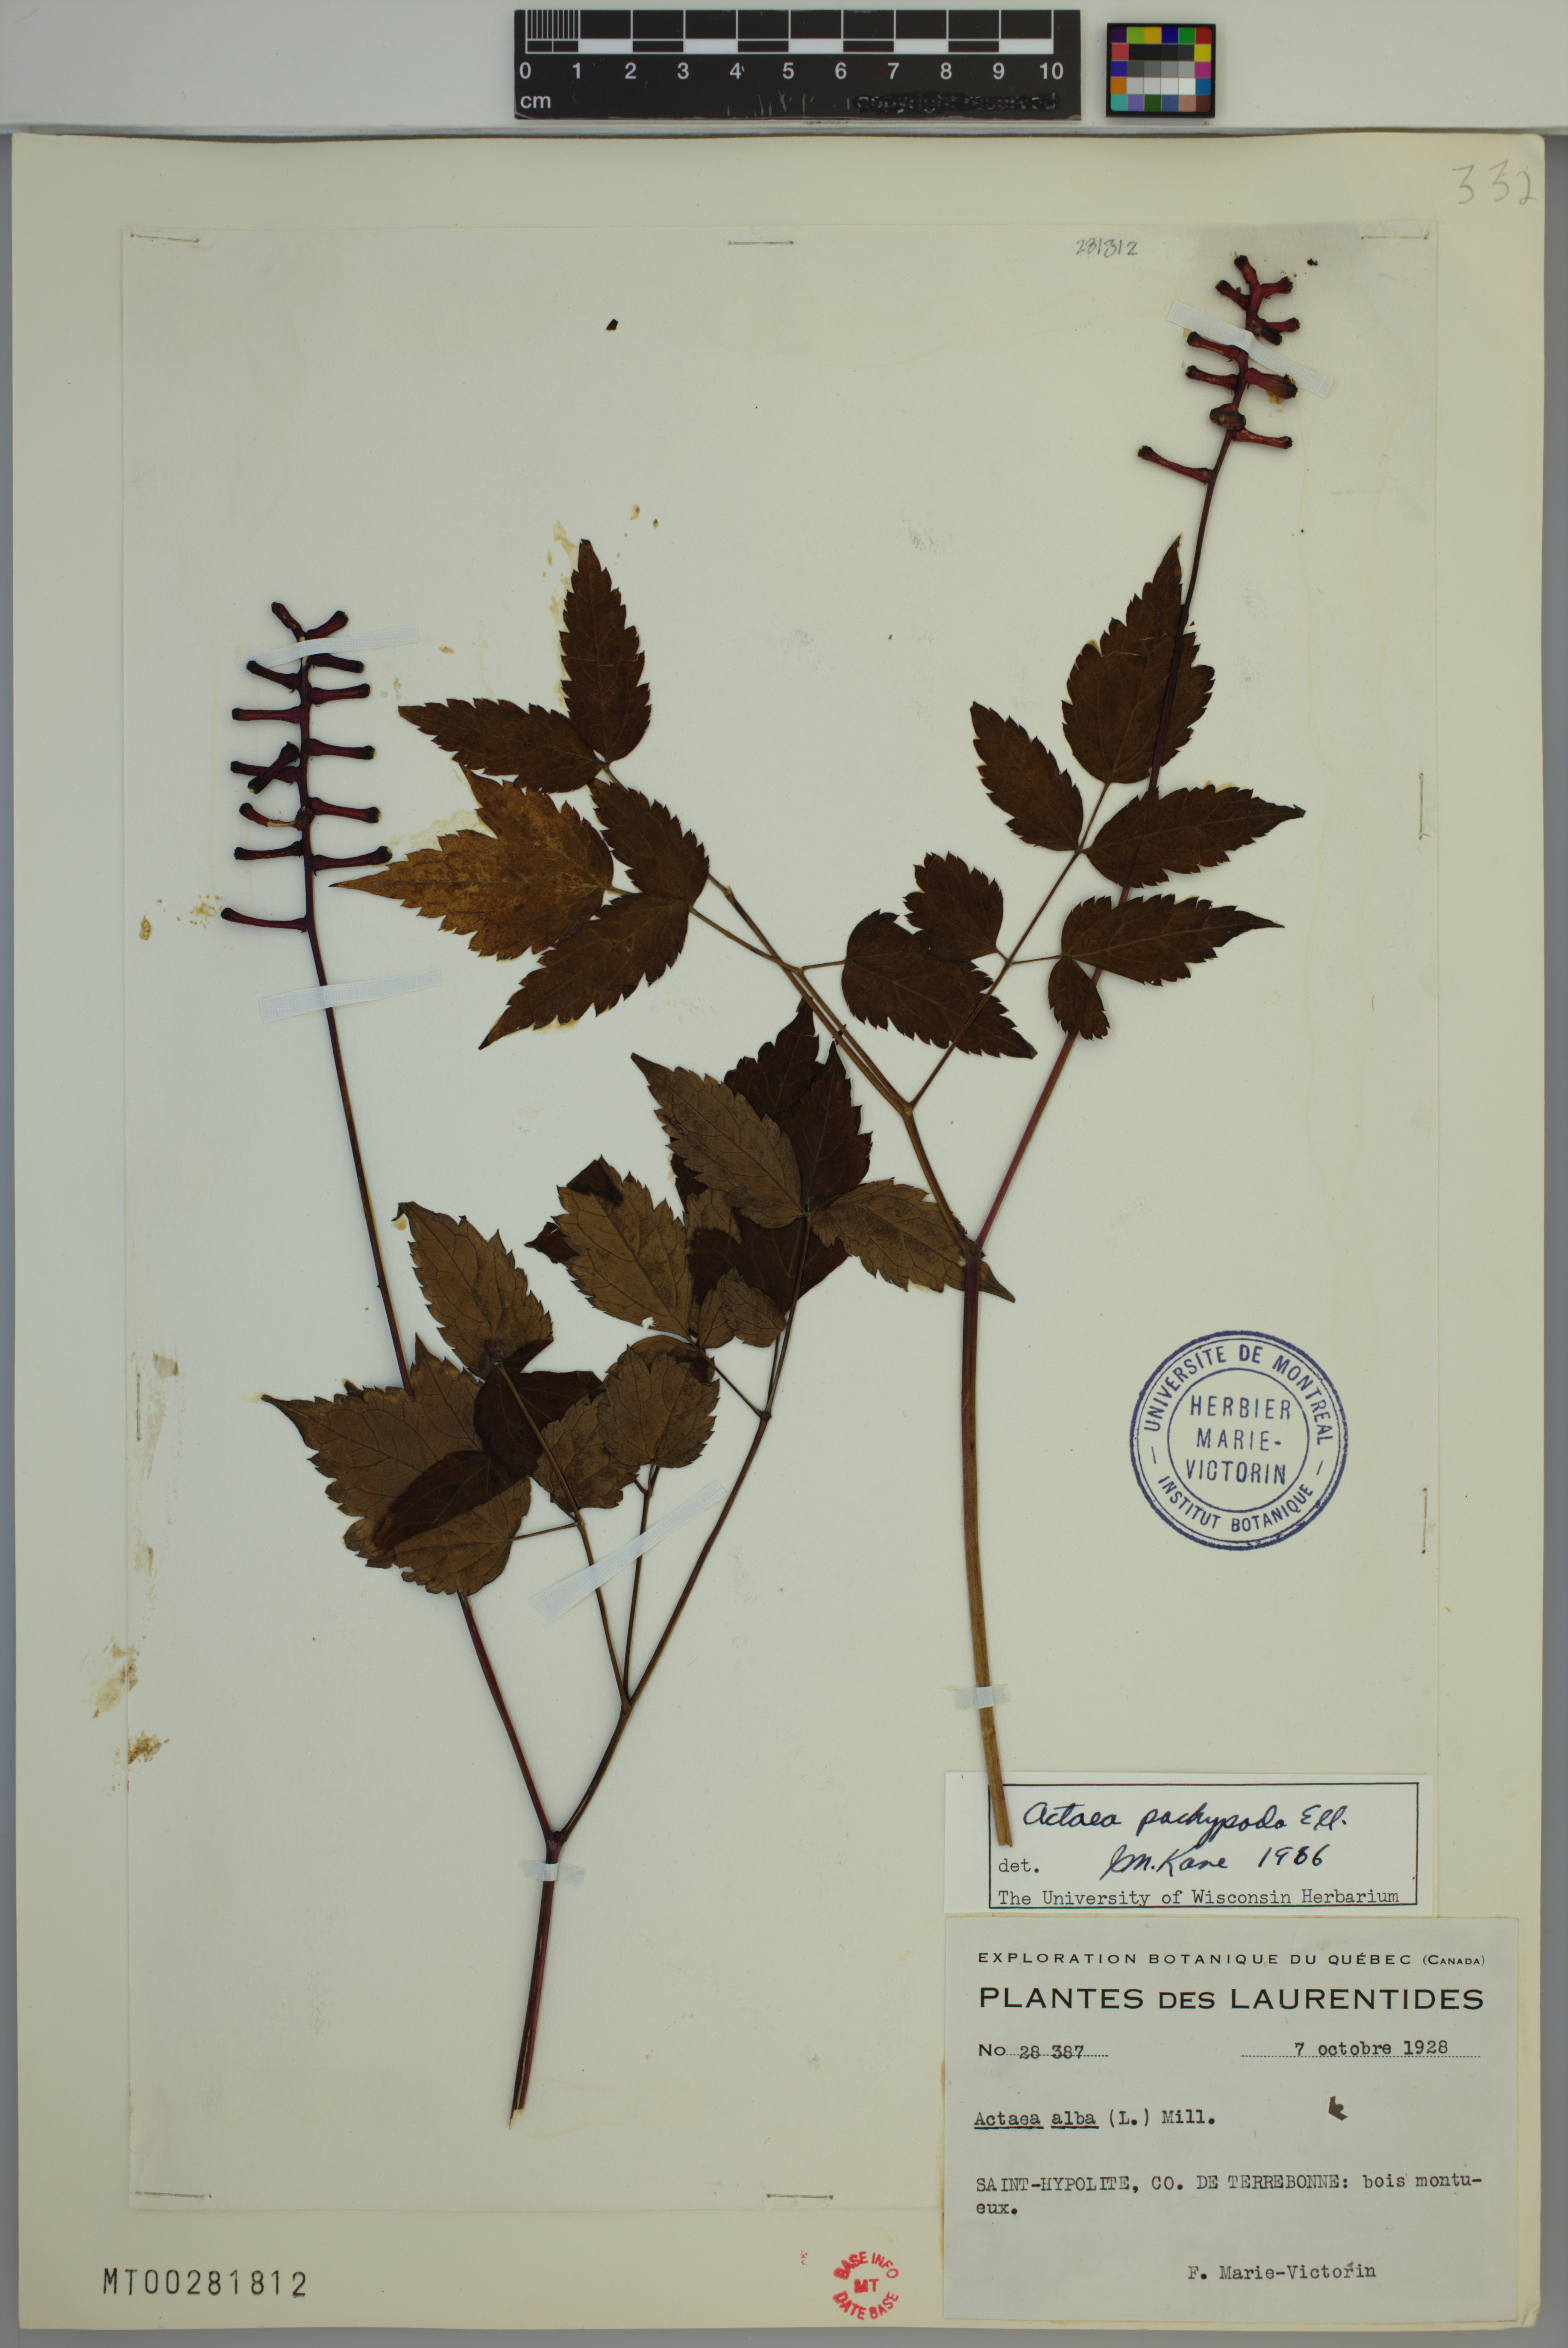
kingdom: Plantae
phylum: Tracheophyta
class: Magnoliopsida
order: Ranunculales
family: Ranunculaceae
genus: Actaea
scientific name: Actaea pachypoda
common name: Doll's-eyes
